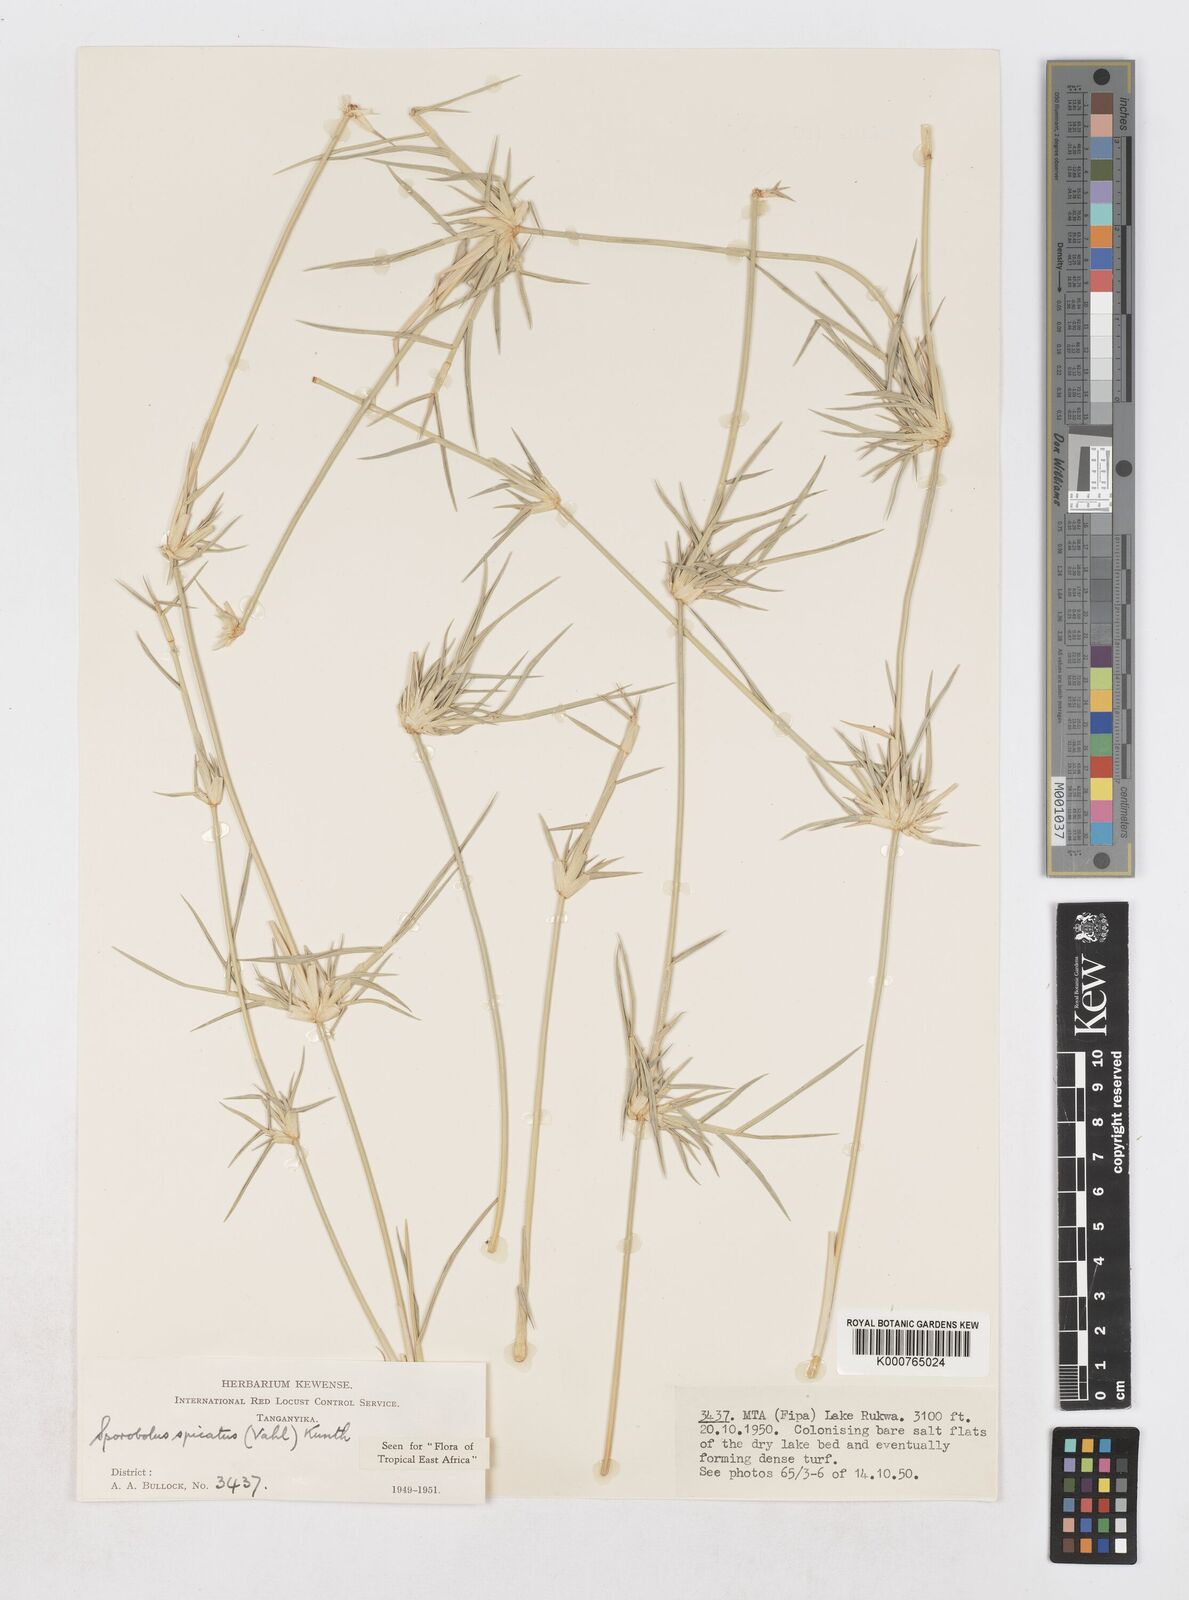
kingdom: Plantae
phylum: Tracheophyta
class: Liliopsida
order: Poales
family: Poaceae
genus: Sporobolus
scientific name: Sporobolus spicatus
